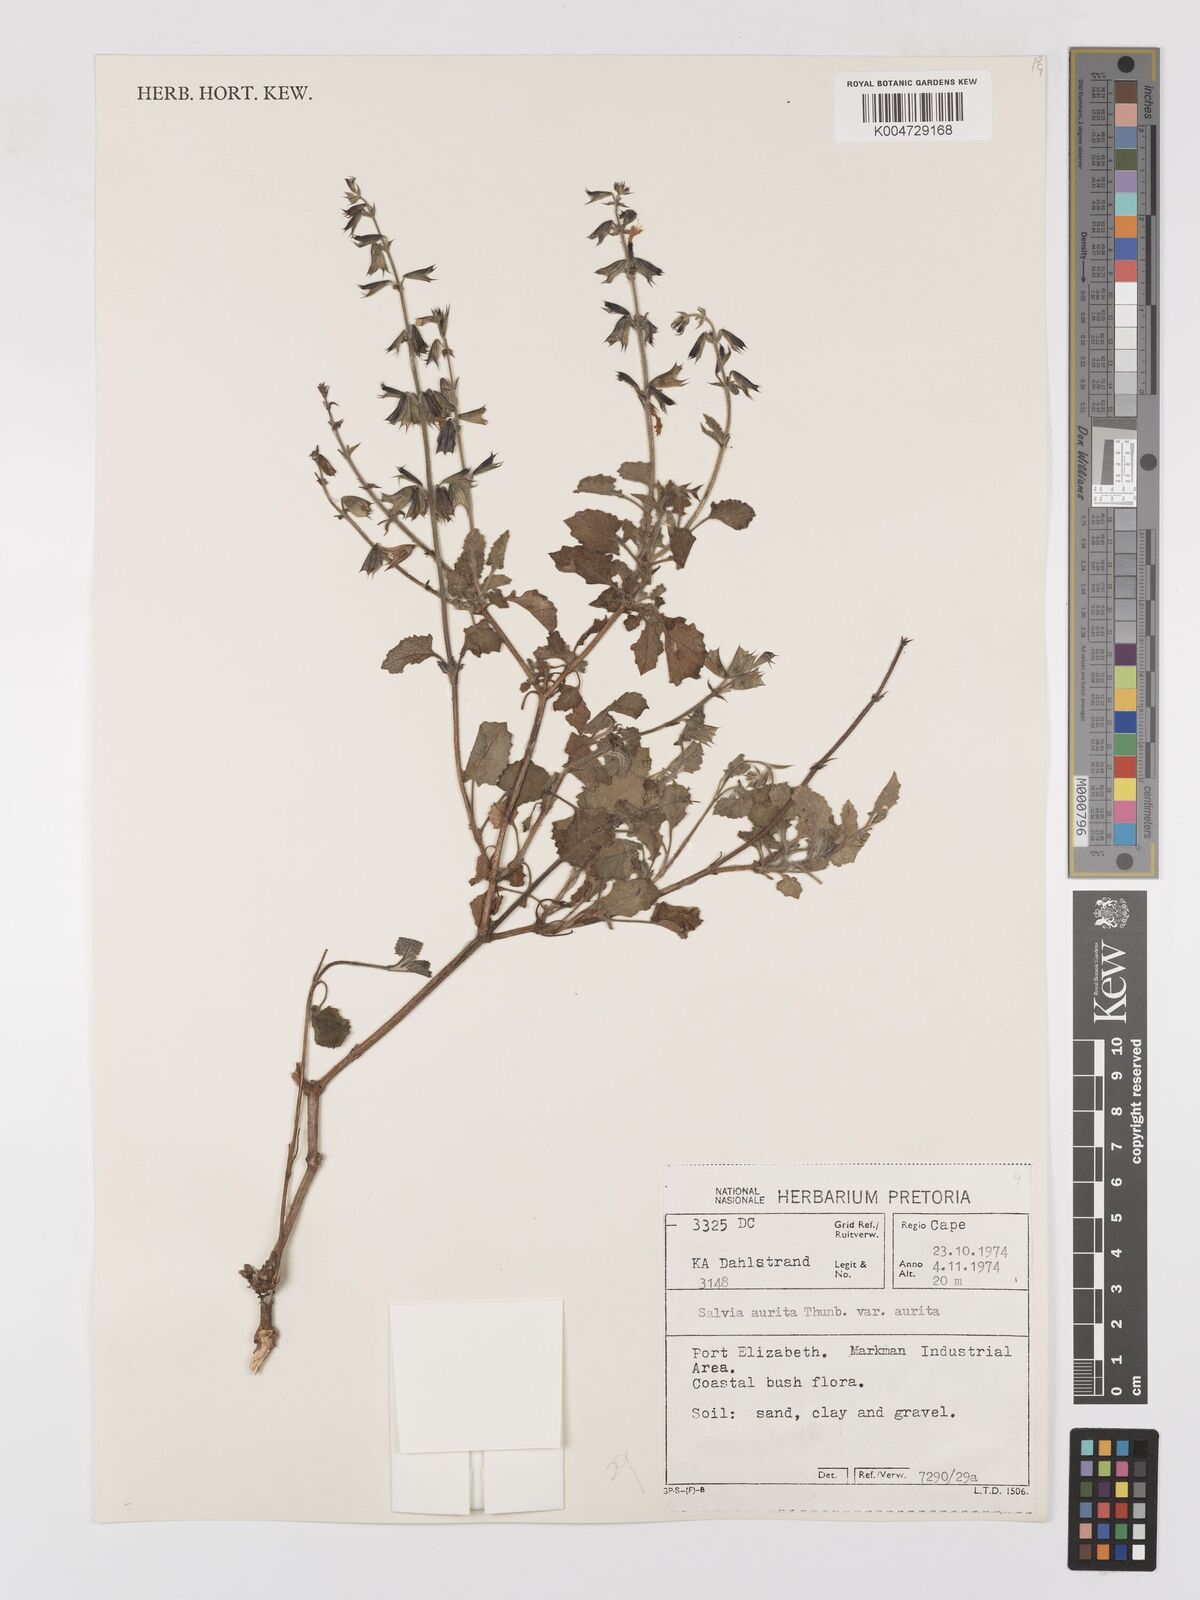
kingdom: Plantae
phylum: Tracheophyta
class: Magnoliopsida
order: Lamiales
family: Lamiaceae
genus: Salvia
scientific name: Salvia aurita
